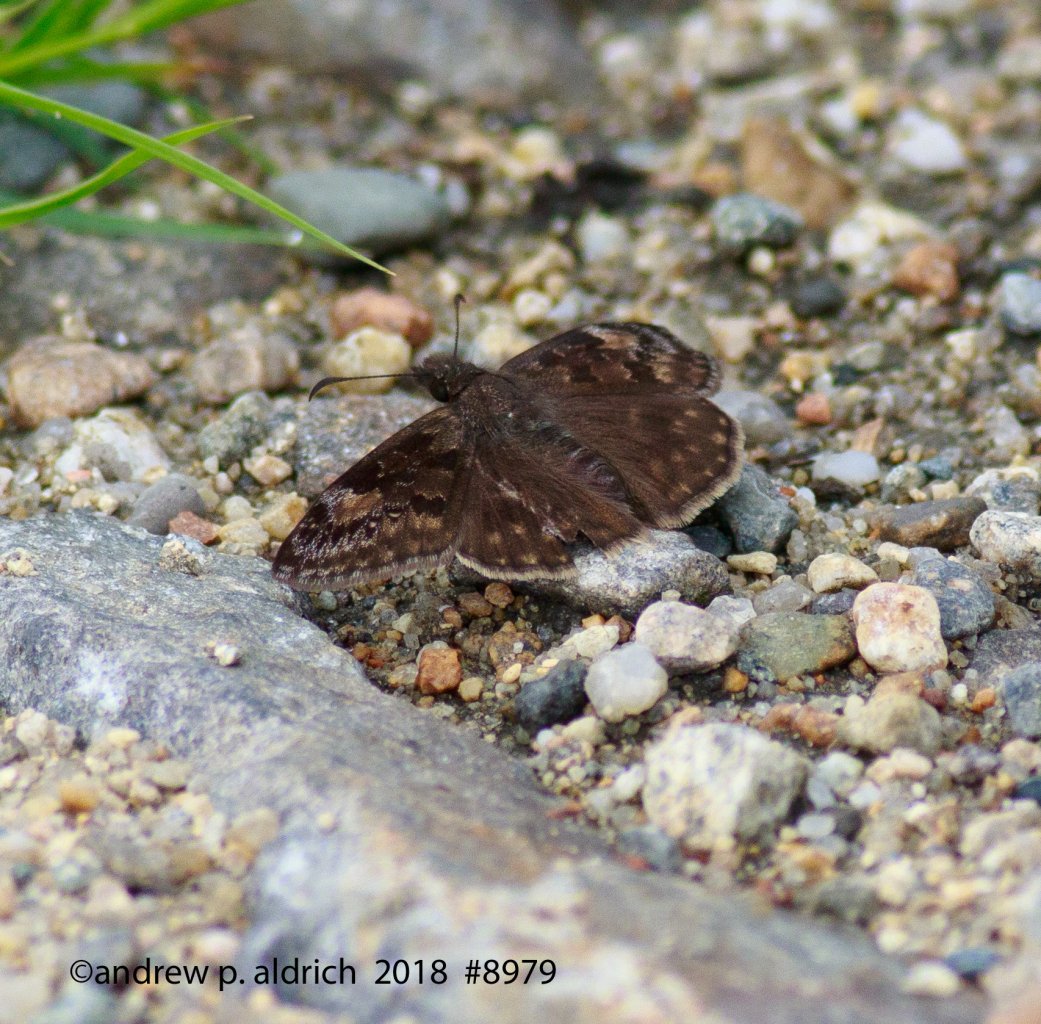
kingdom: Animalia
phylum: Arthropoda
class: Insecta
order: Lepidoptera
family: Hesperiidae
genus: Gesta
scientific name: Gesta
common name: Juvenal's Duskywing
